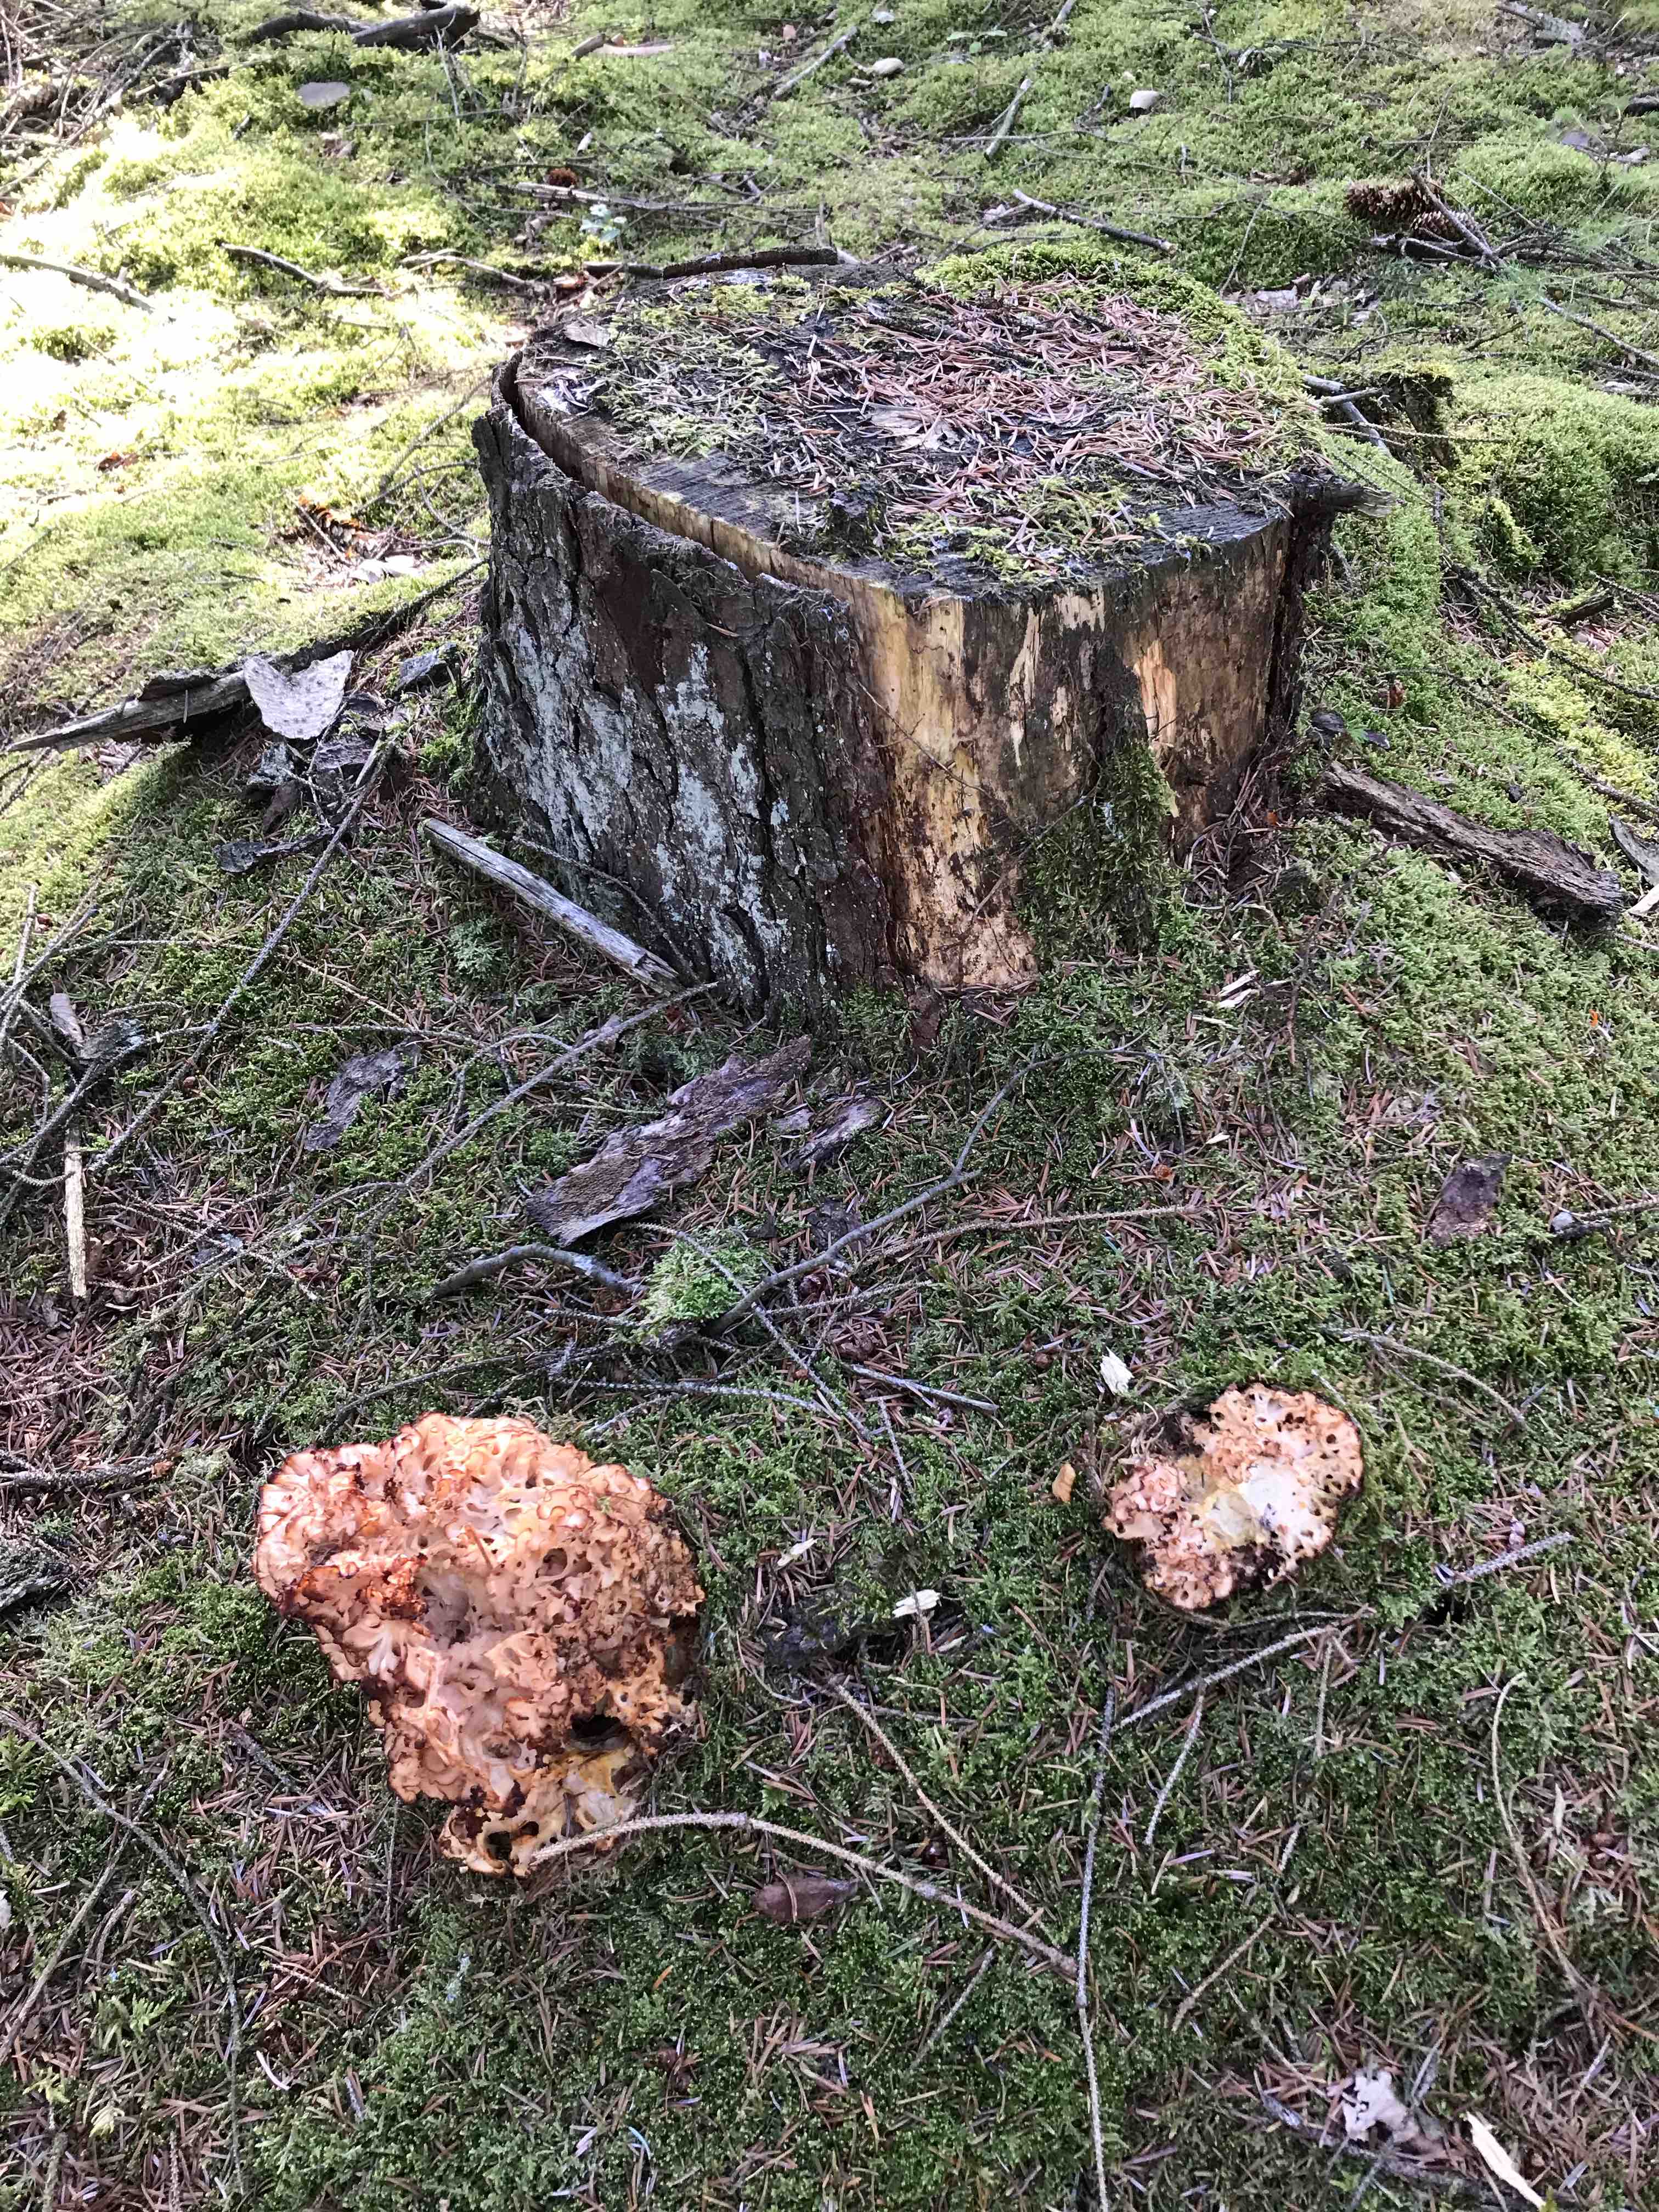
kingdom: Fungi
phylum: Basidiomycota
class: Agaricomycetes
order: Polyporales
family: Sparassidaceae
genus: Sparassis
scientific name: Sparassis crispa
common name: kruset blomkålssvamp
